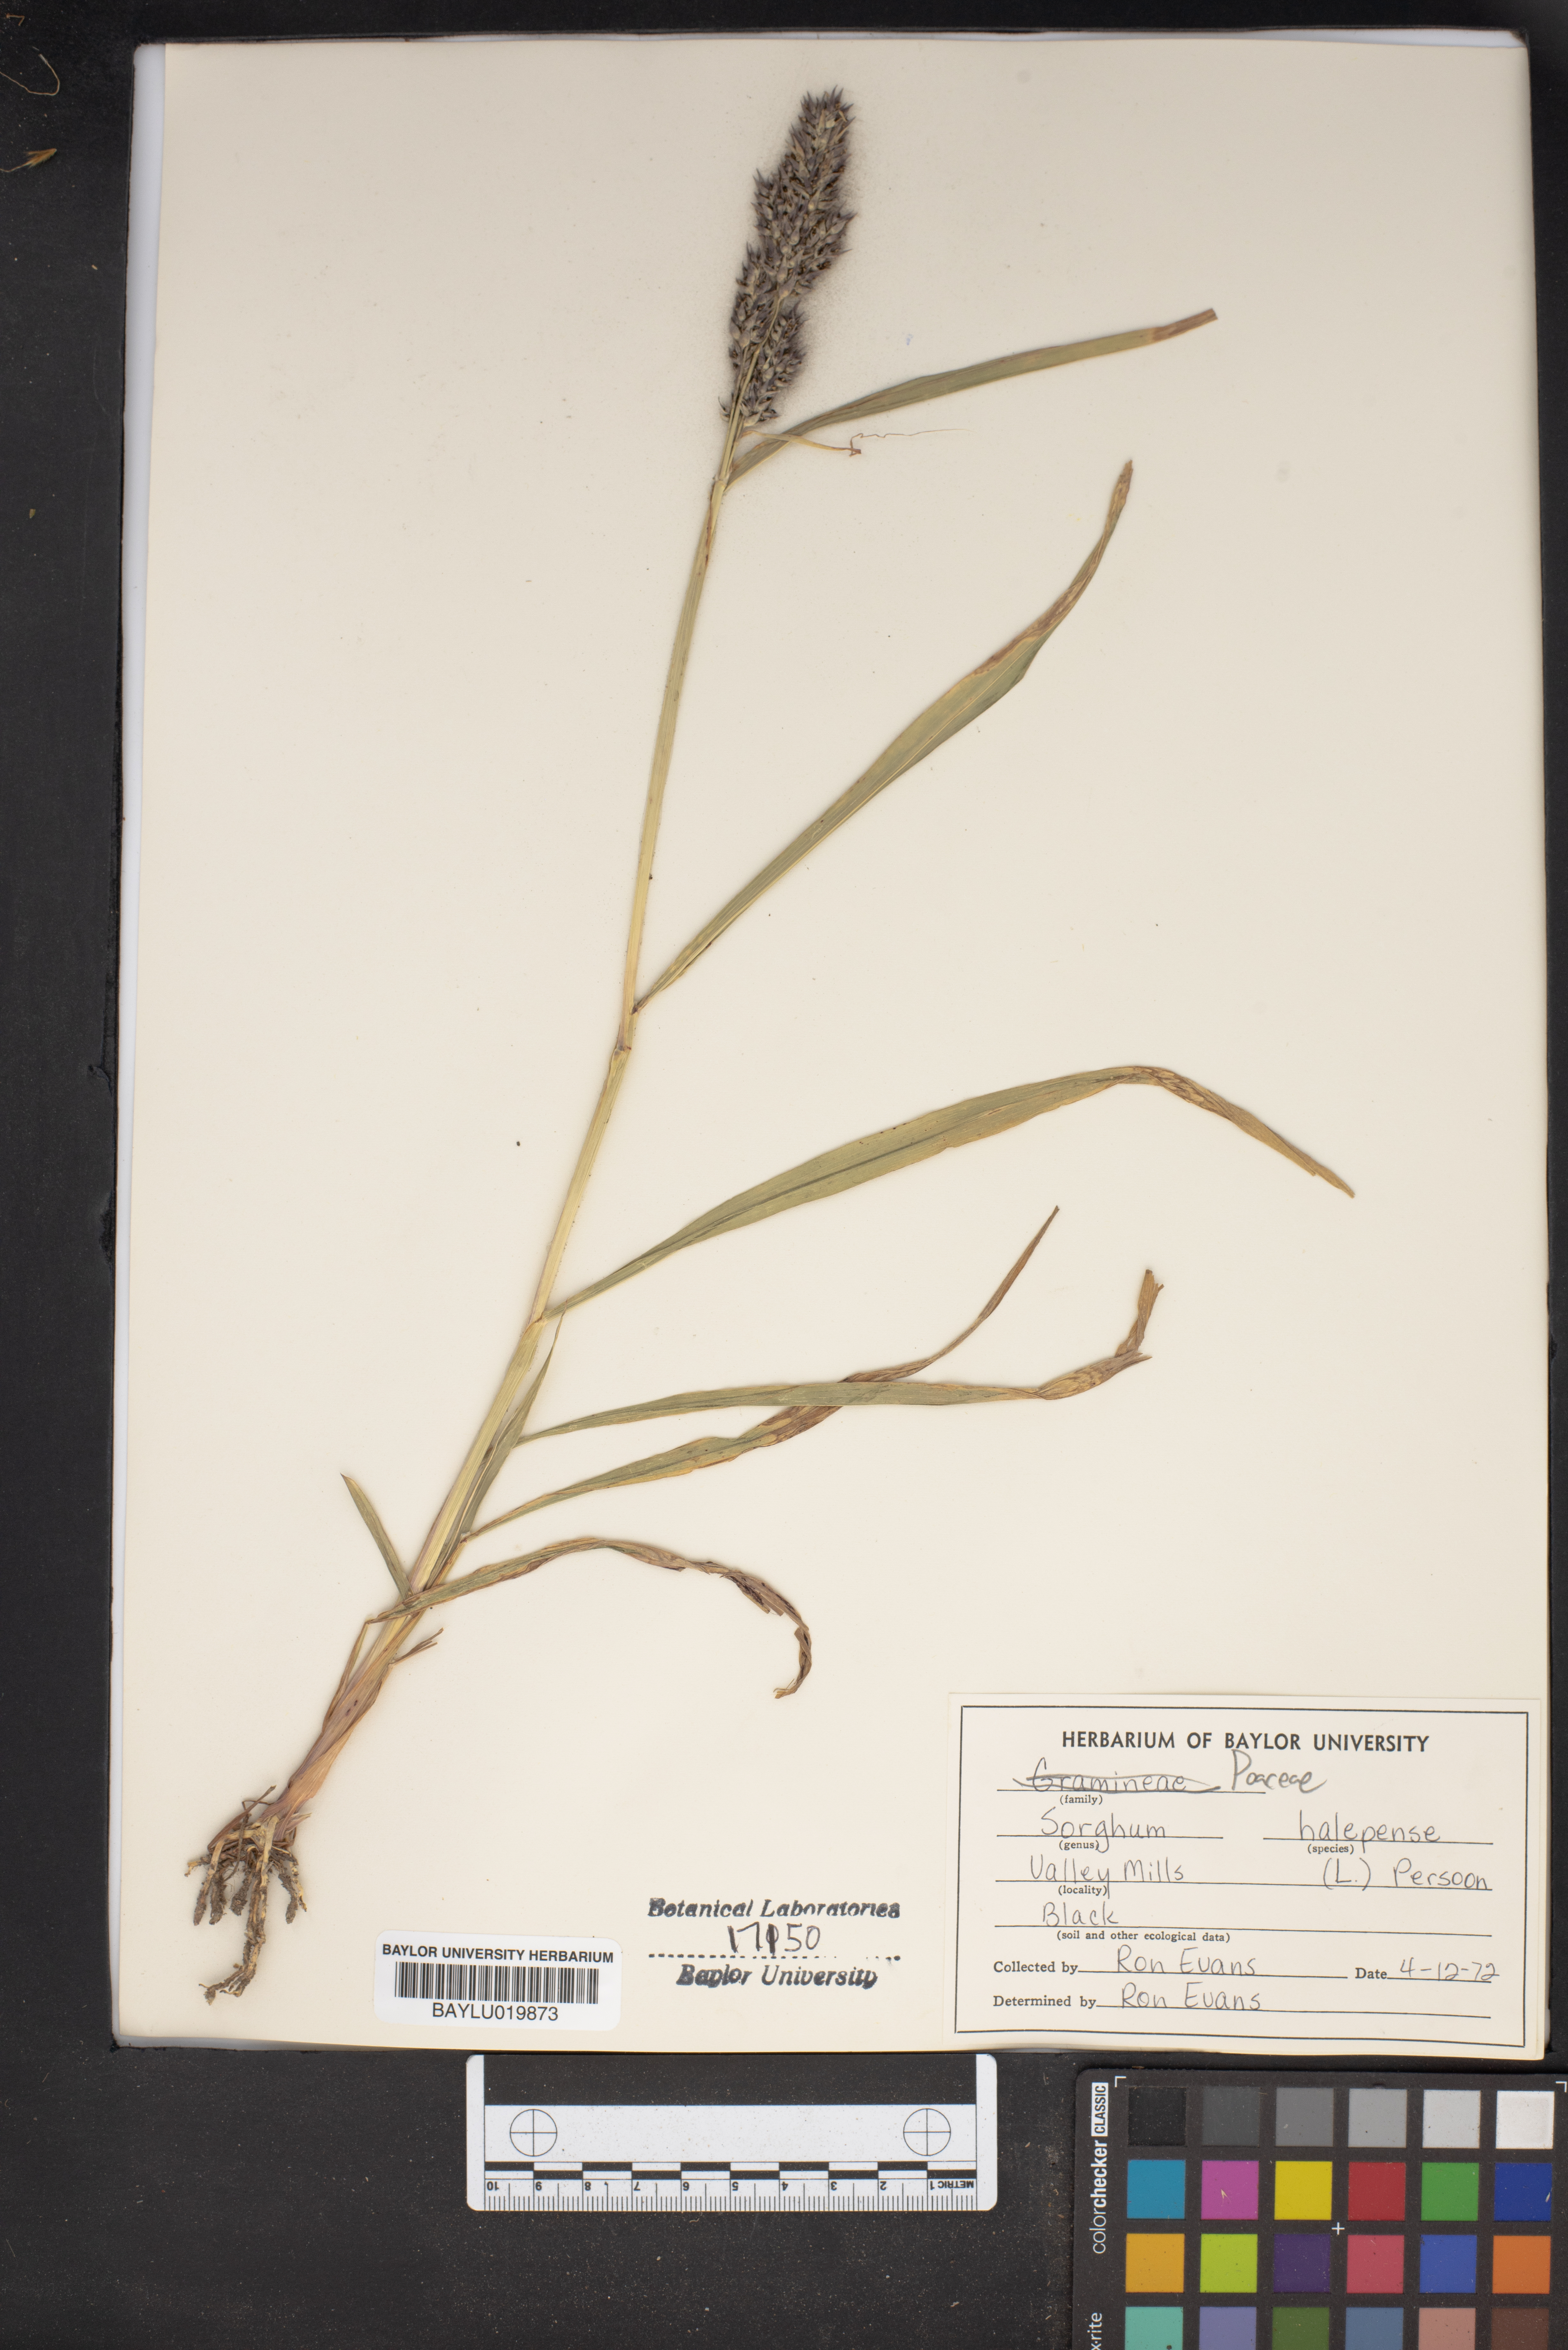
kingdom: Plantae
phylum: Tracheophyta
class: Liliopsida
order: Poales
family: Poaceae
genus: Sorghum
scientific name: Sorghum halepense
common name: Johnson-grass
